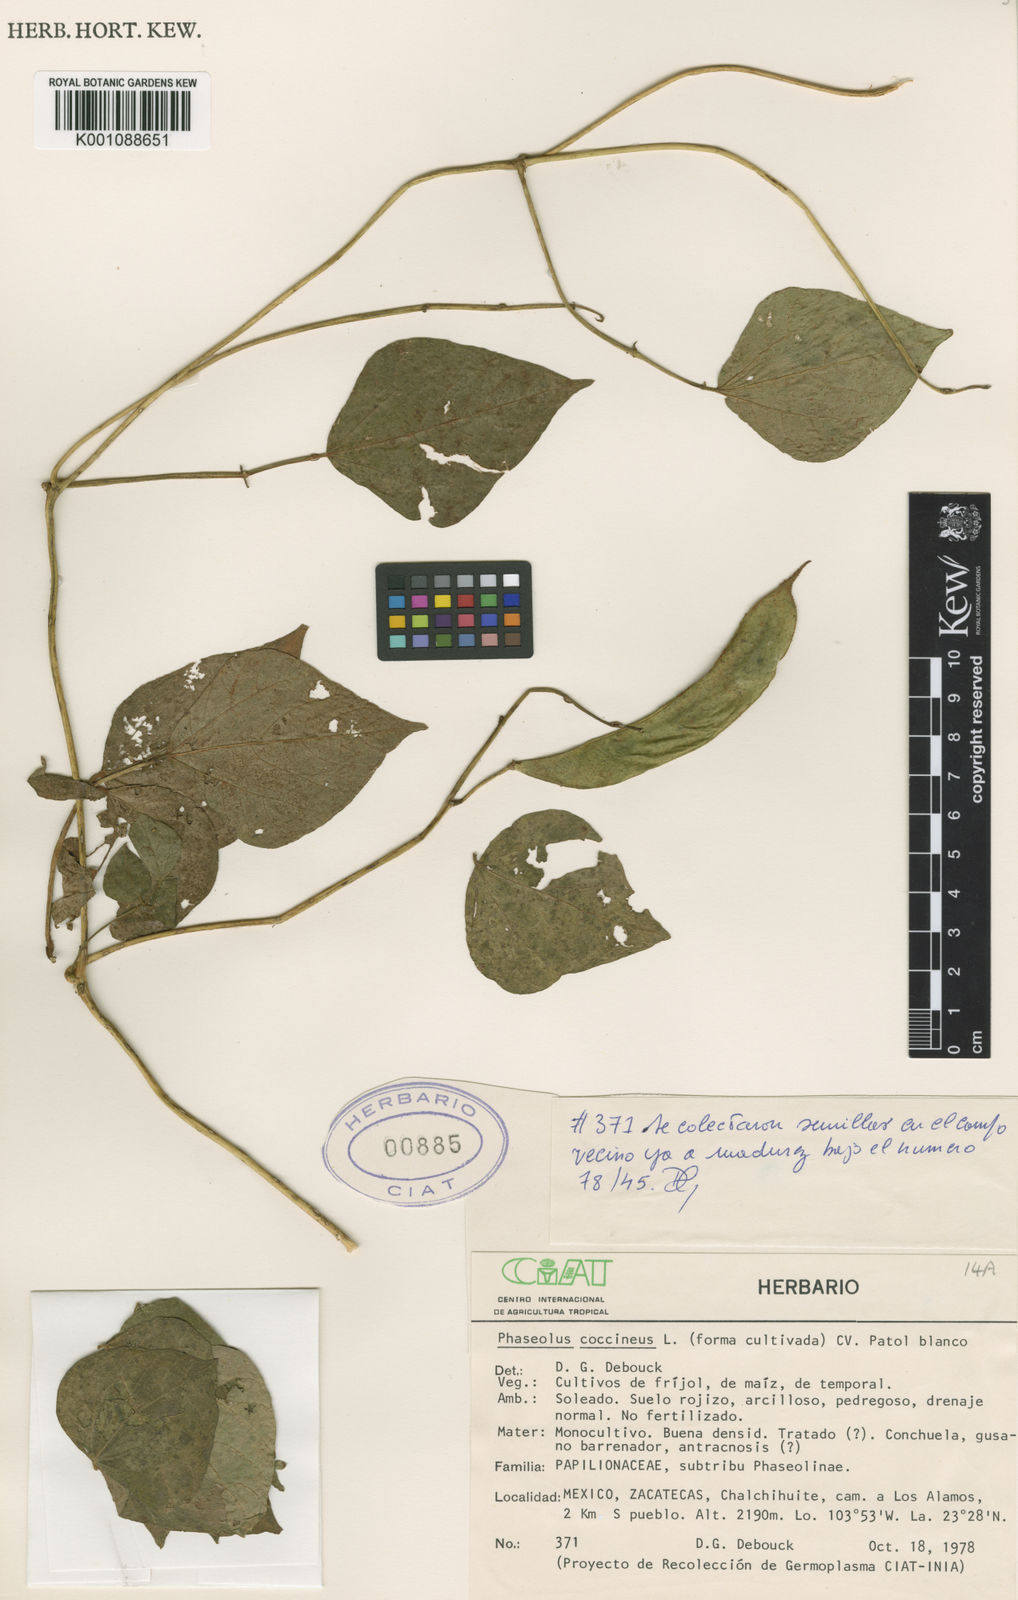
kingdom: Plantae
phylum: Tracheophyta
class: Magnoliopsida
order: Fabales
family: Fabaceae
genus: Phaseolus
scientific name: Phaseolus coccineus
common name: Runner bean
